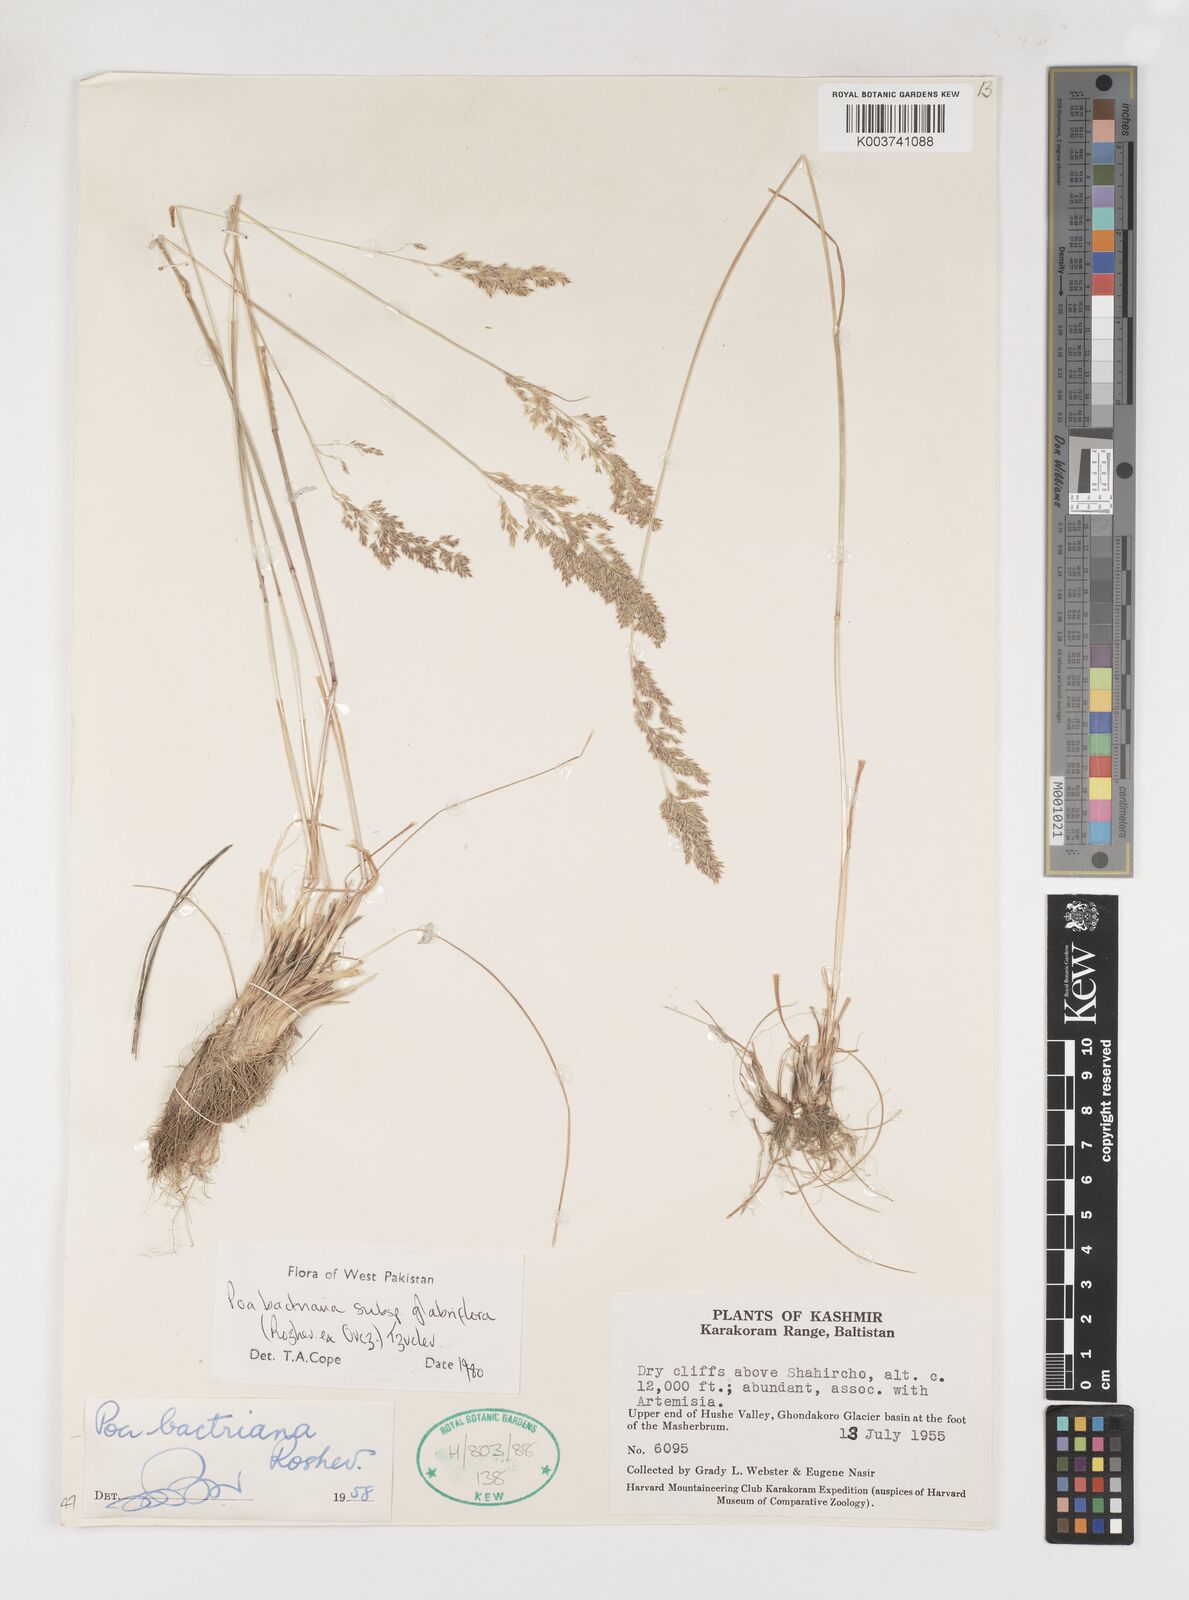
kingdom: Plantae
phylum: Tracheophyta
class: Liliopsida
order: Poales
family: Poaceae
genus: Poa
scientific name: Poa bactriana
